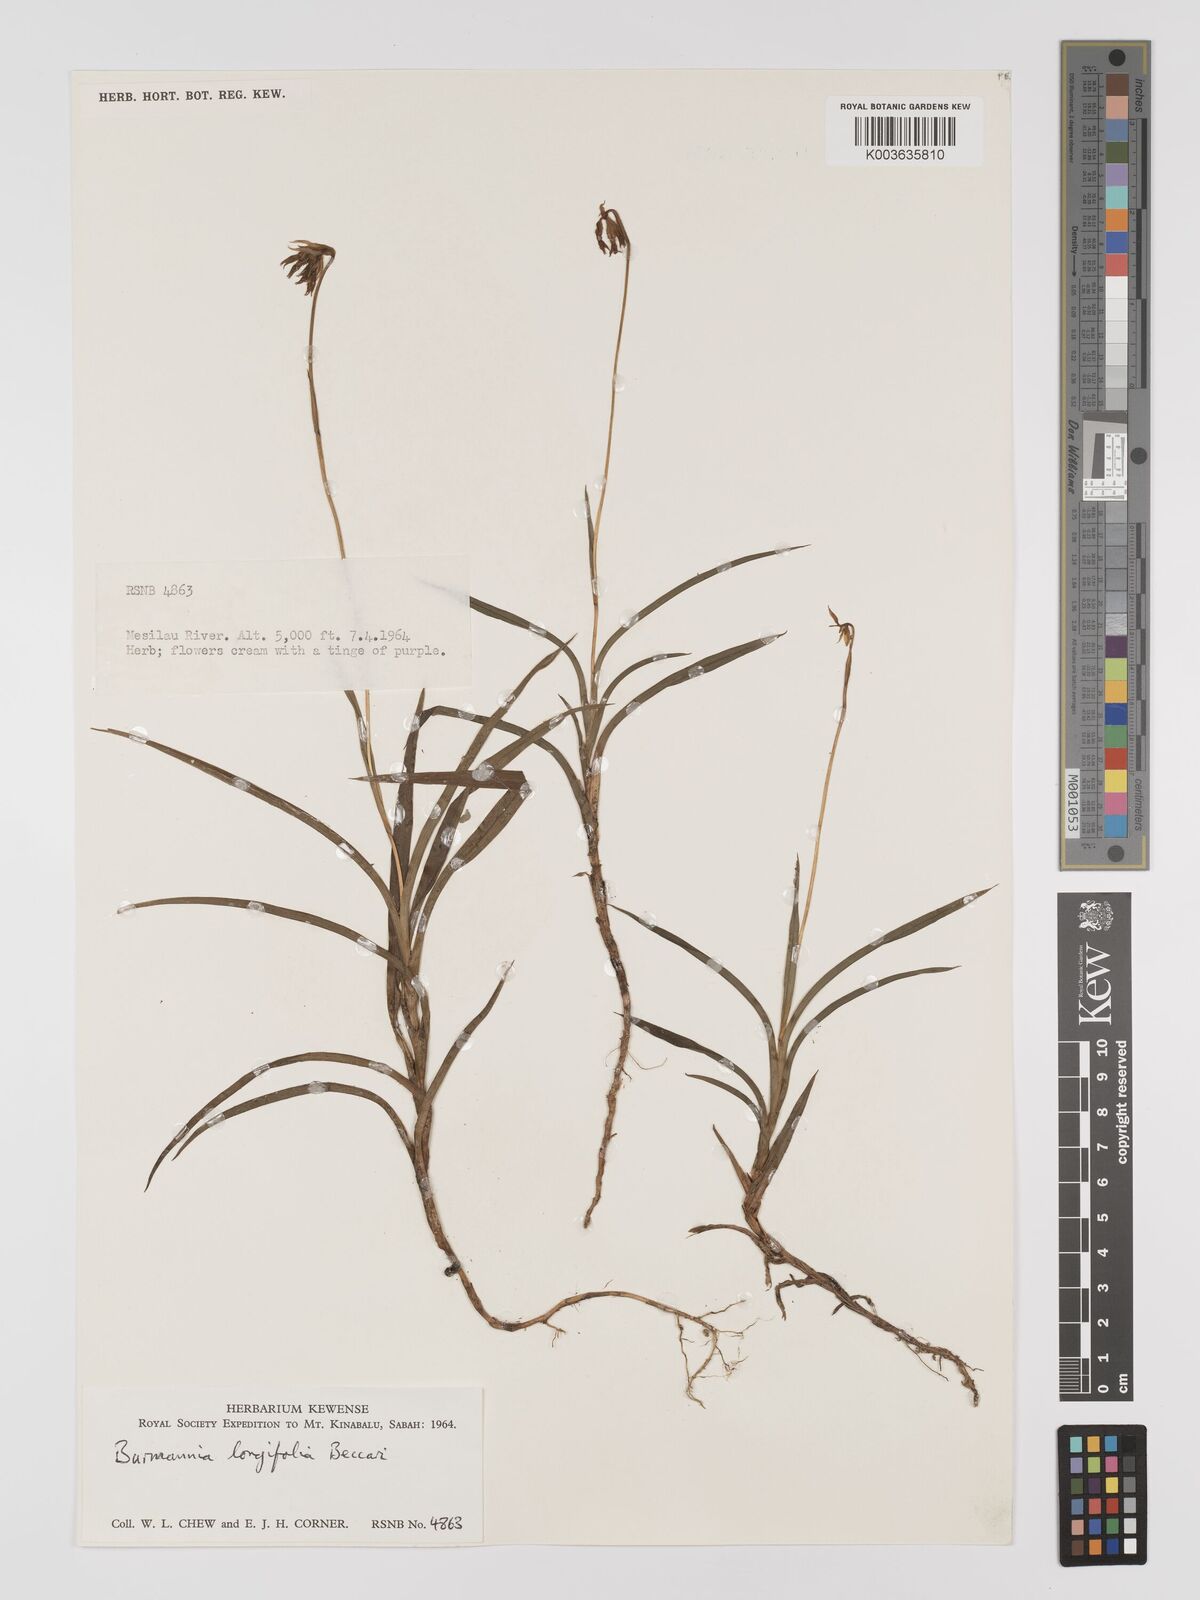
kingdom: Plantae
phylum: Tracheophyta
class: Liliopsida
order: Dioscoreales
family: Burmanniaceae
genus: Burmannia
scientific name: Burmannia longifolia
